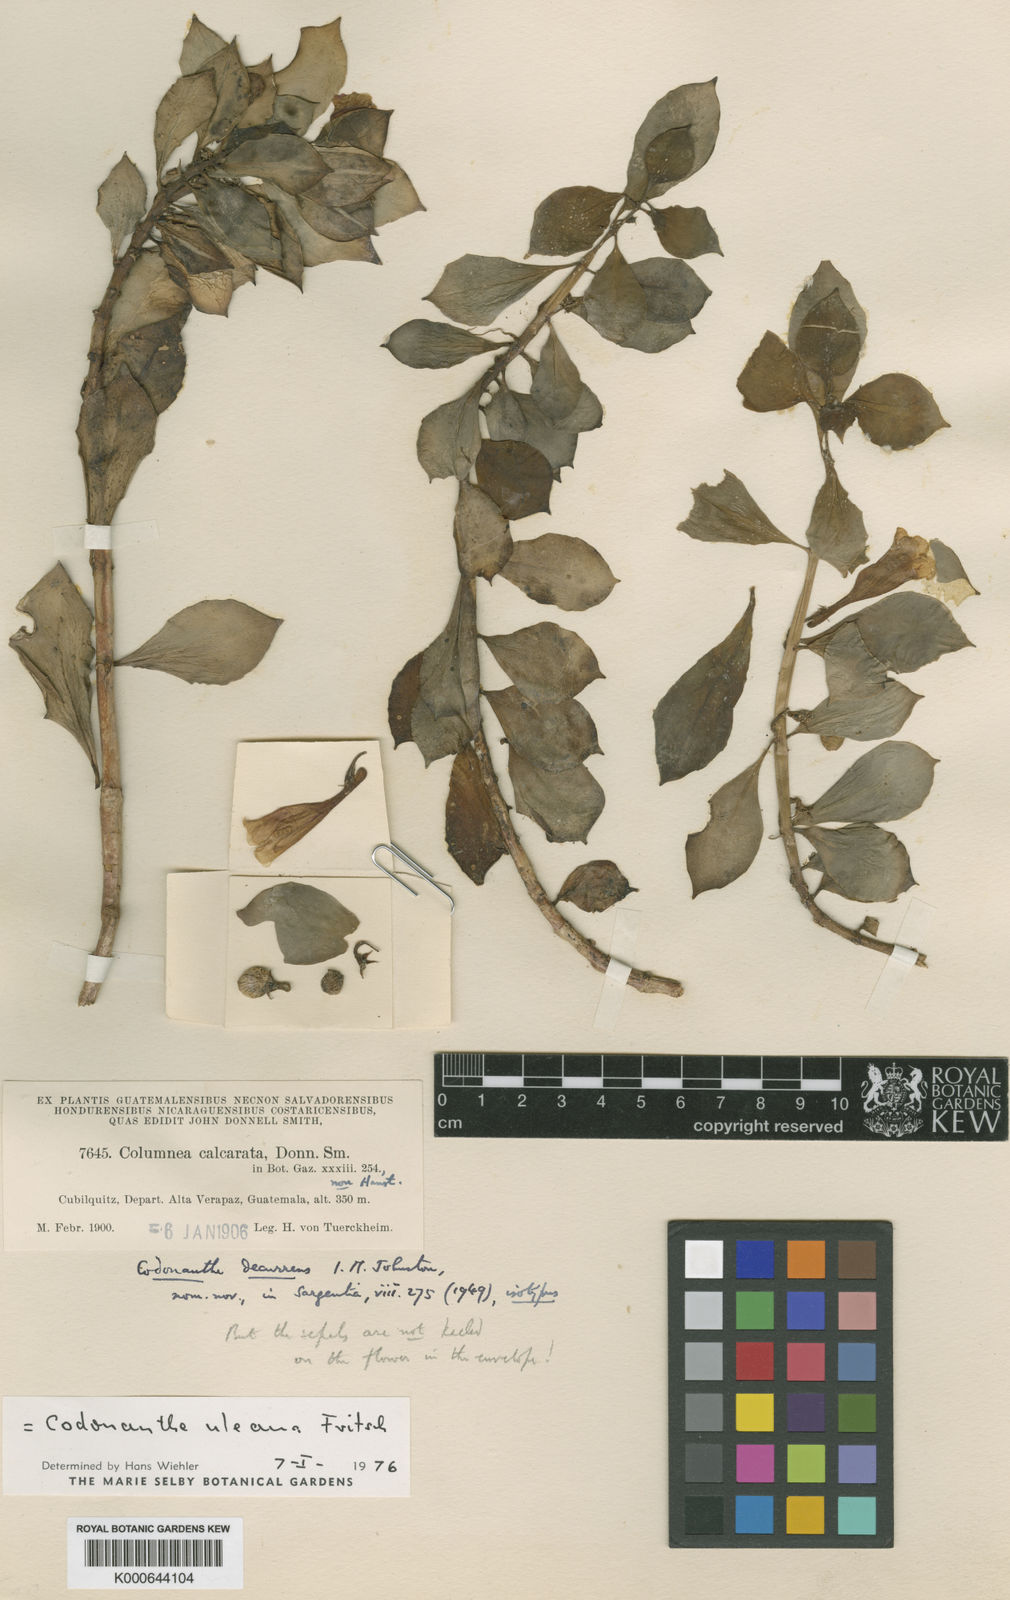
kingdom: Plantae
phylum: Tracheophyta
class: Magnoliopsida
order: Lamiales
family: Gesneriaceae
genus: Codonanthopsis
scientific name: Codonanthopsis uleana
